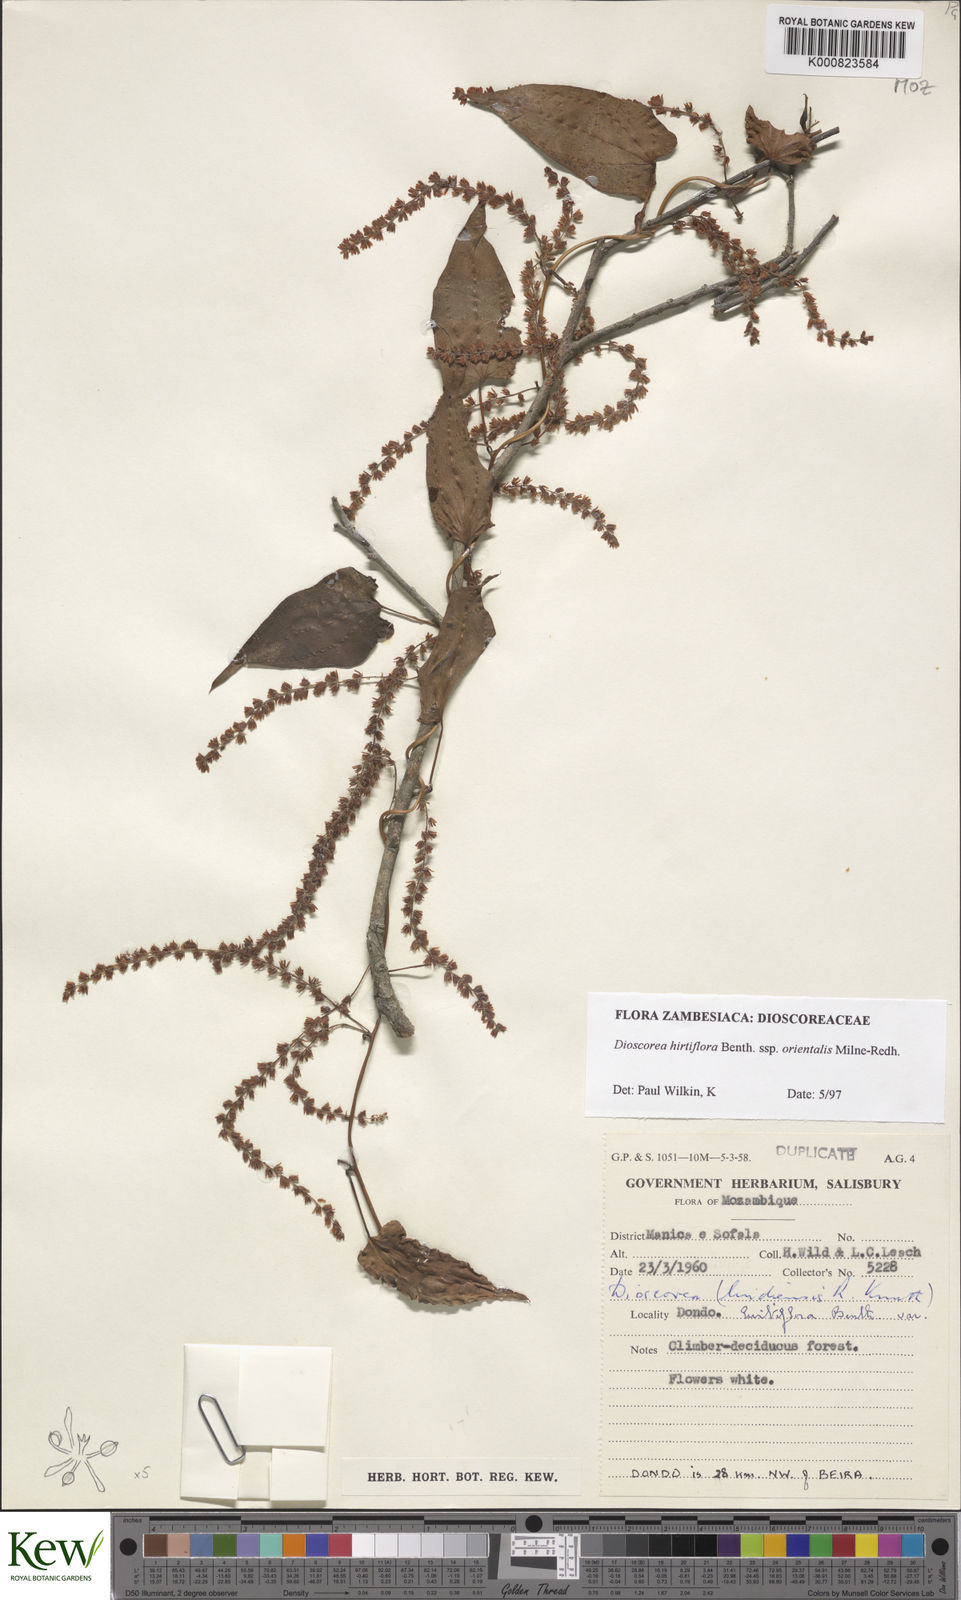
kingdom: Plantae
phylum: Tracheophyta
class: Liliopsida
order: Dioscoreales
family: Dioscoreaceae
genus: Dioscorea
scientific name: Dioscorea hirtiflora
